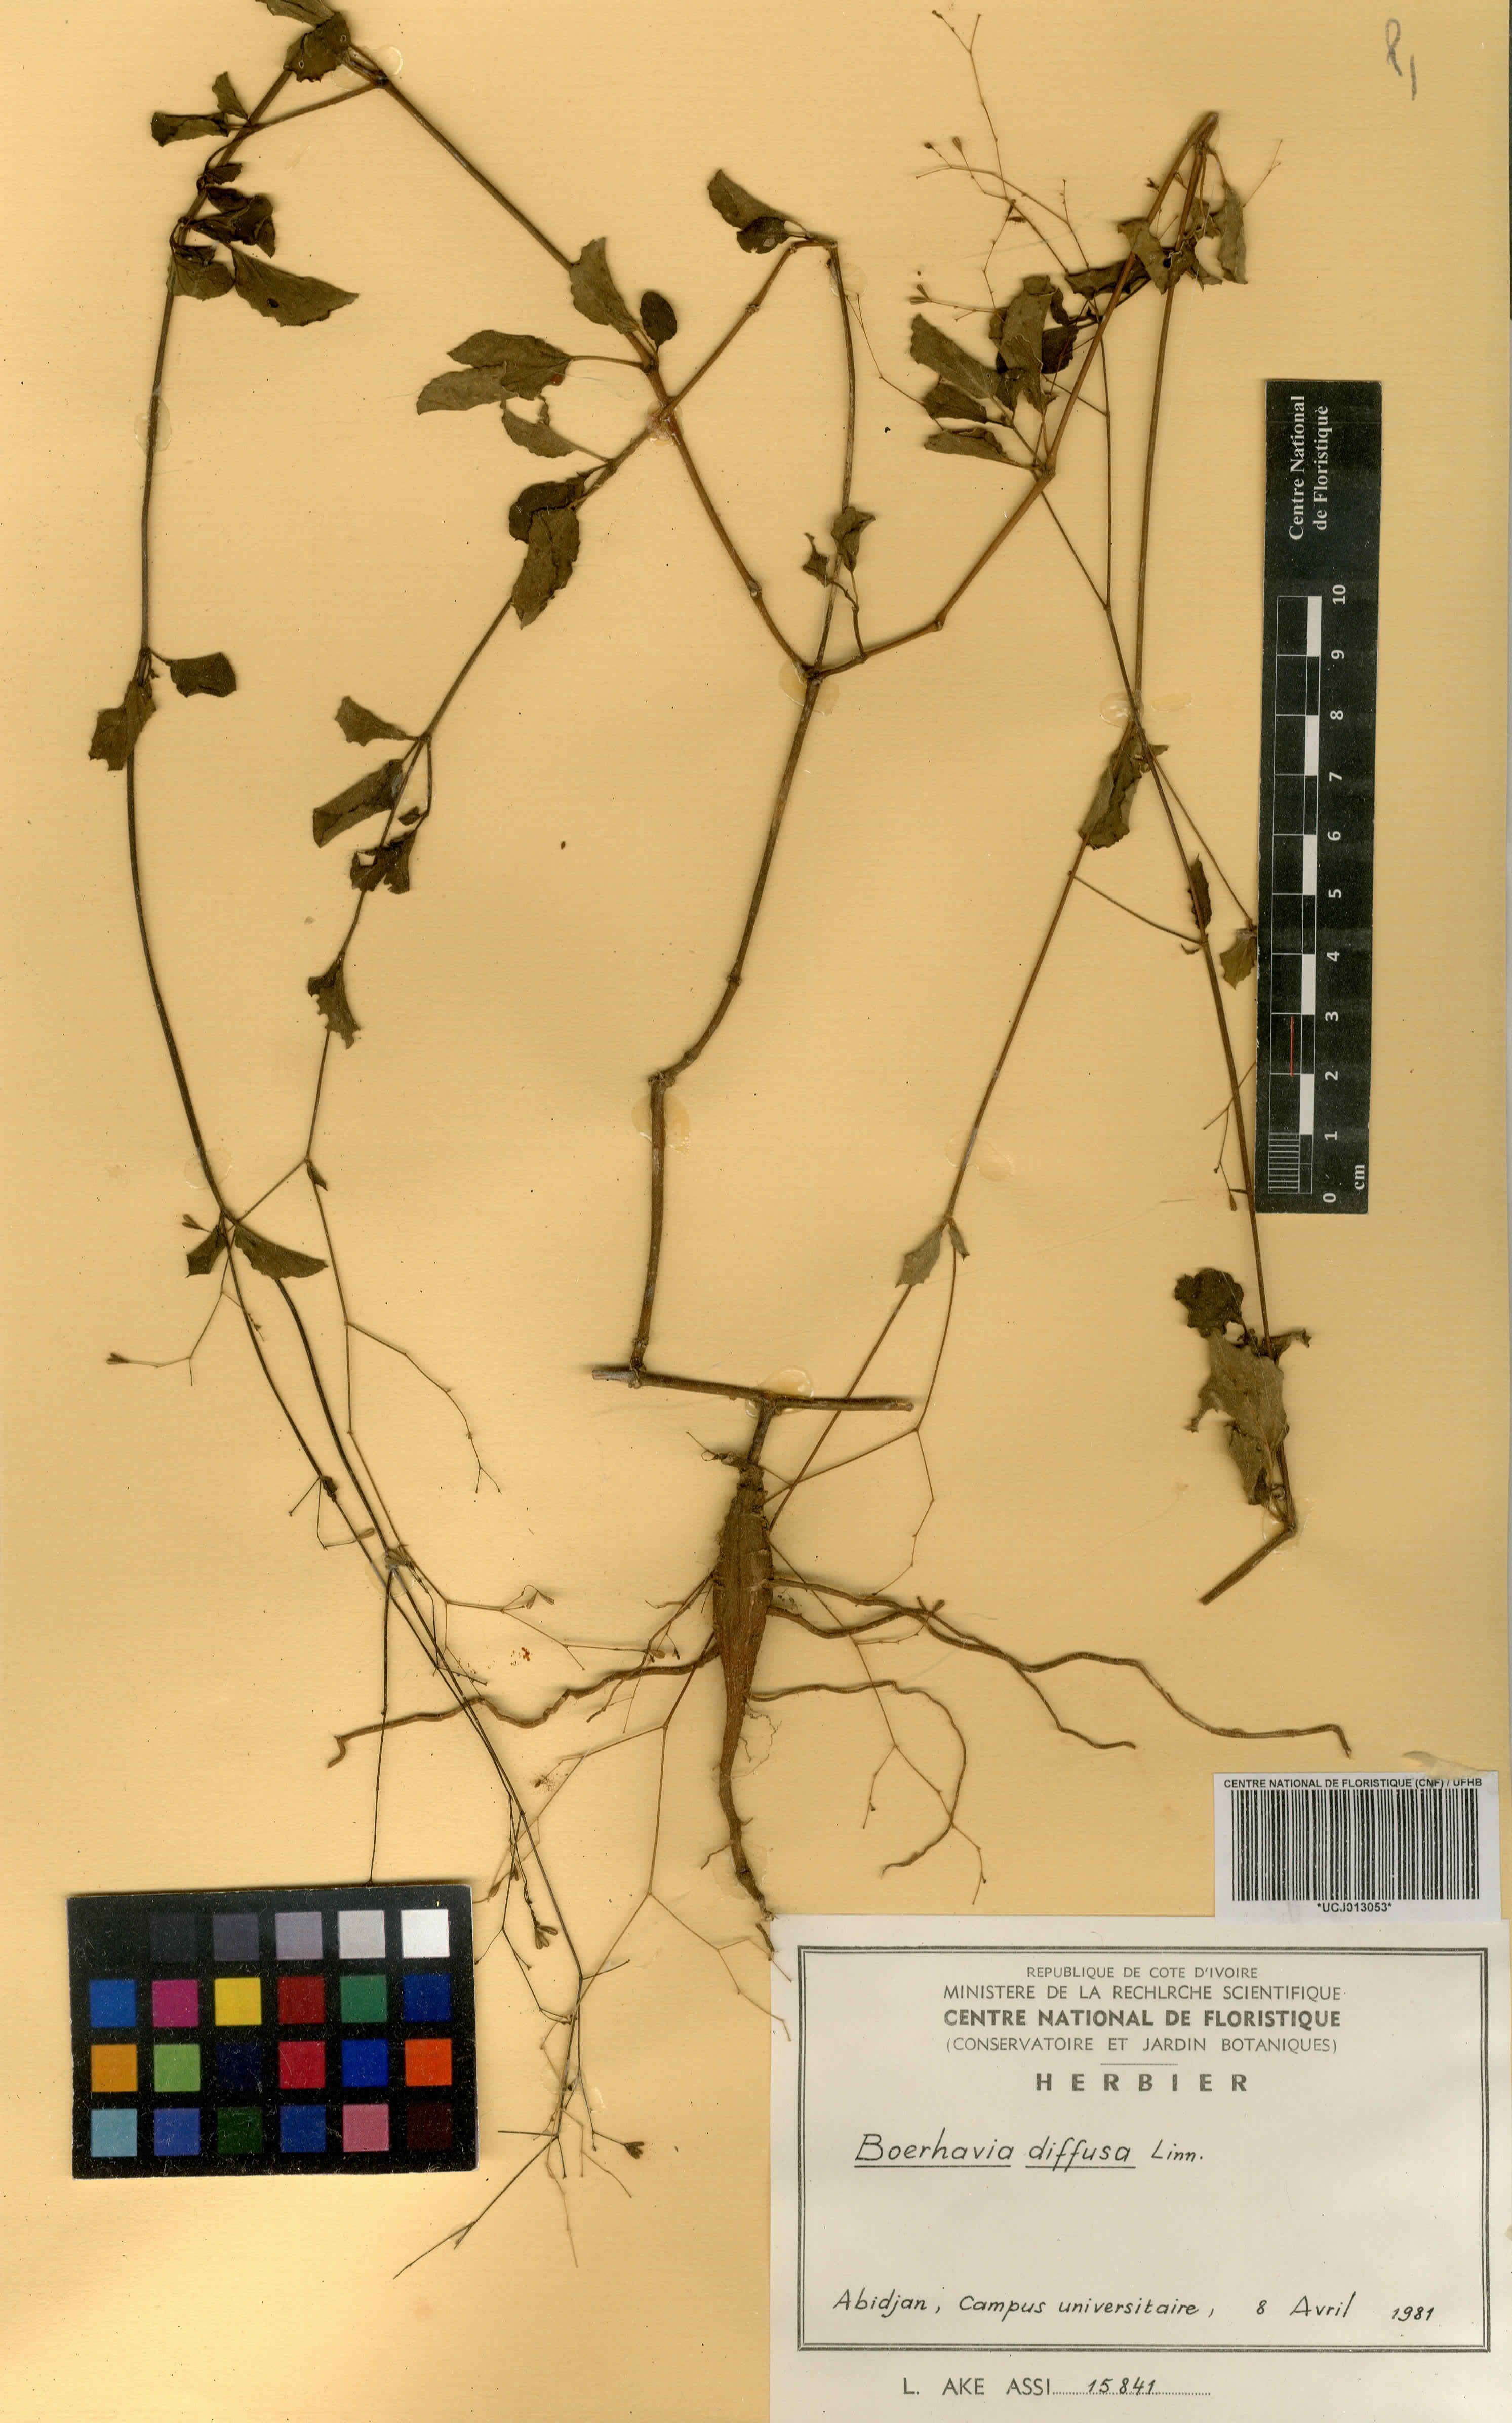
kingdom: Plantae
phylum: Tracheophyta
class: Magnoliopsida
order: Caryophyllales
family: Nyctaginaceae
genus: Boerhavia
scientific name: Boerhavia diffusa
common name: Red spiderling
